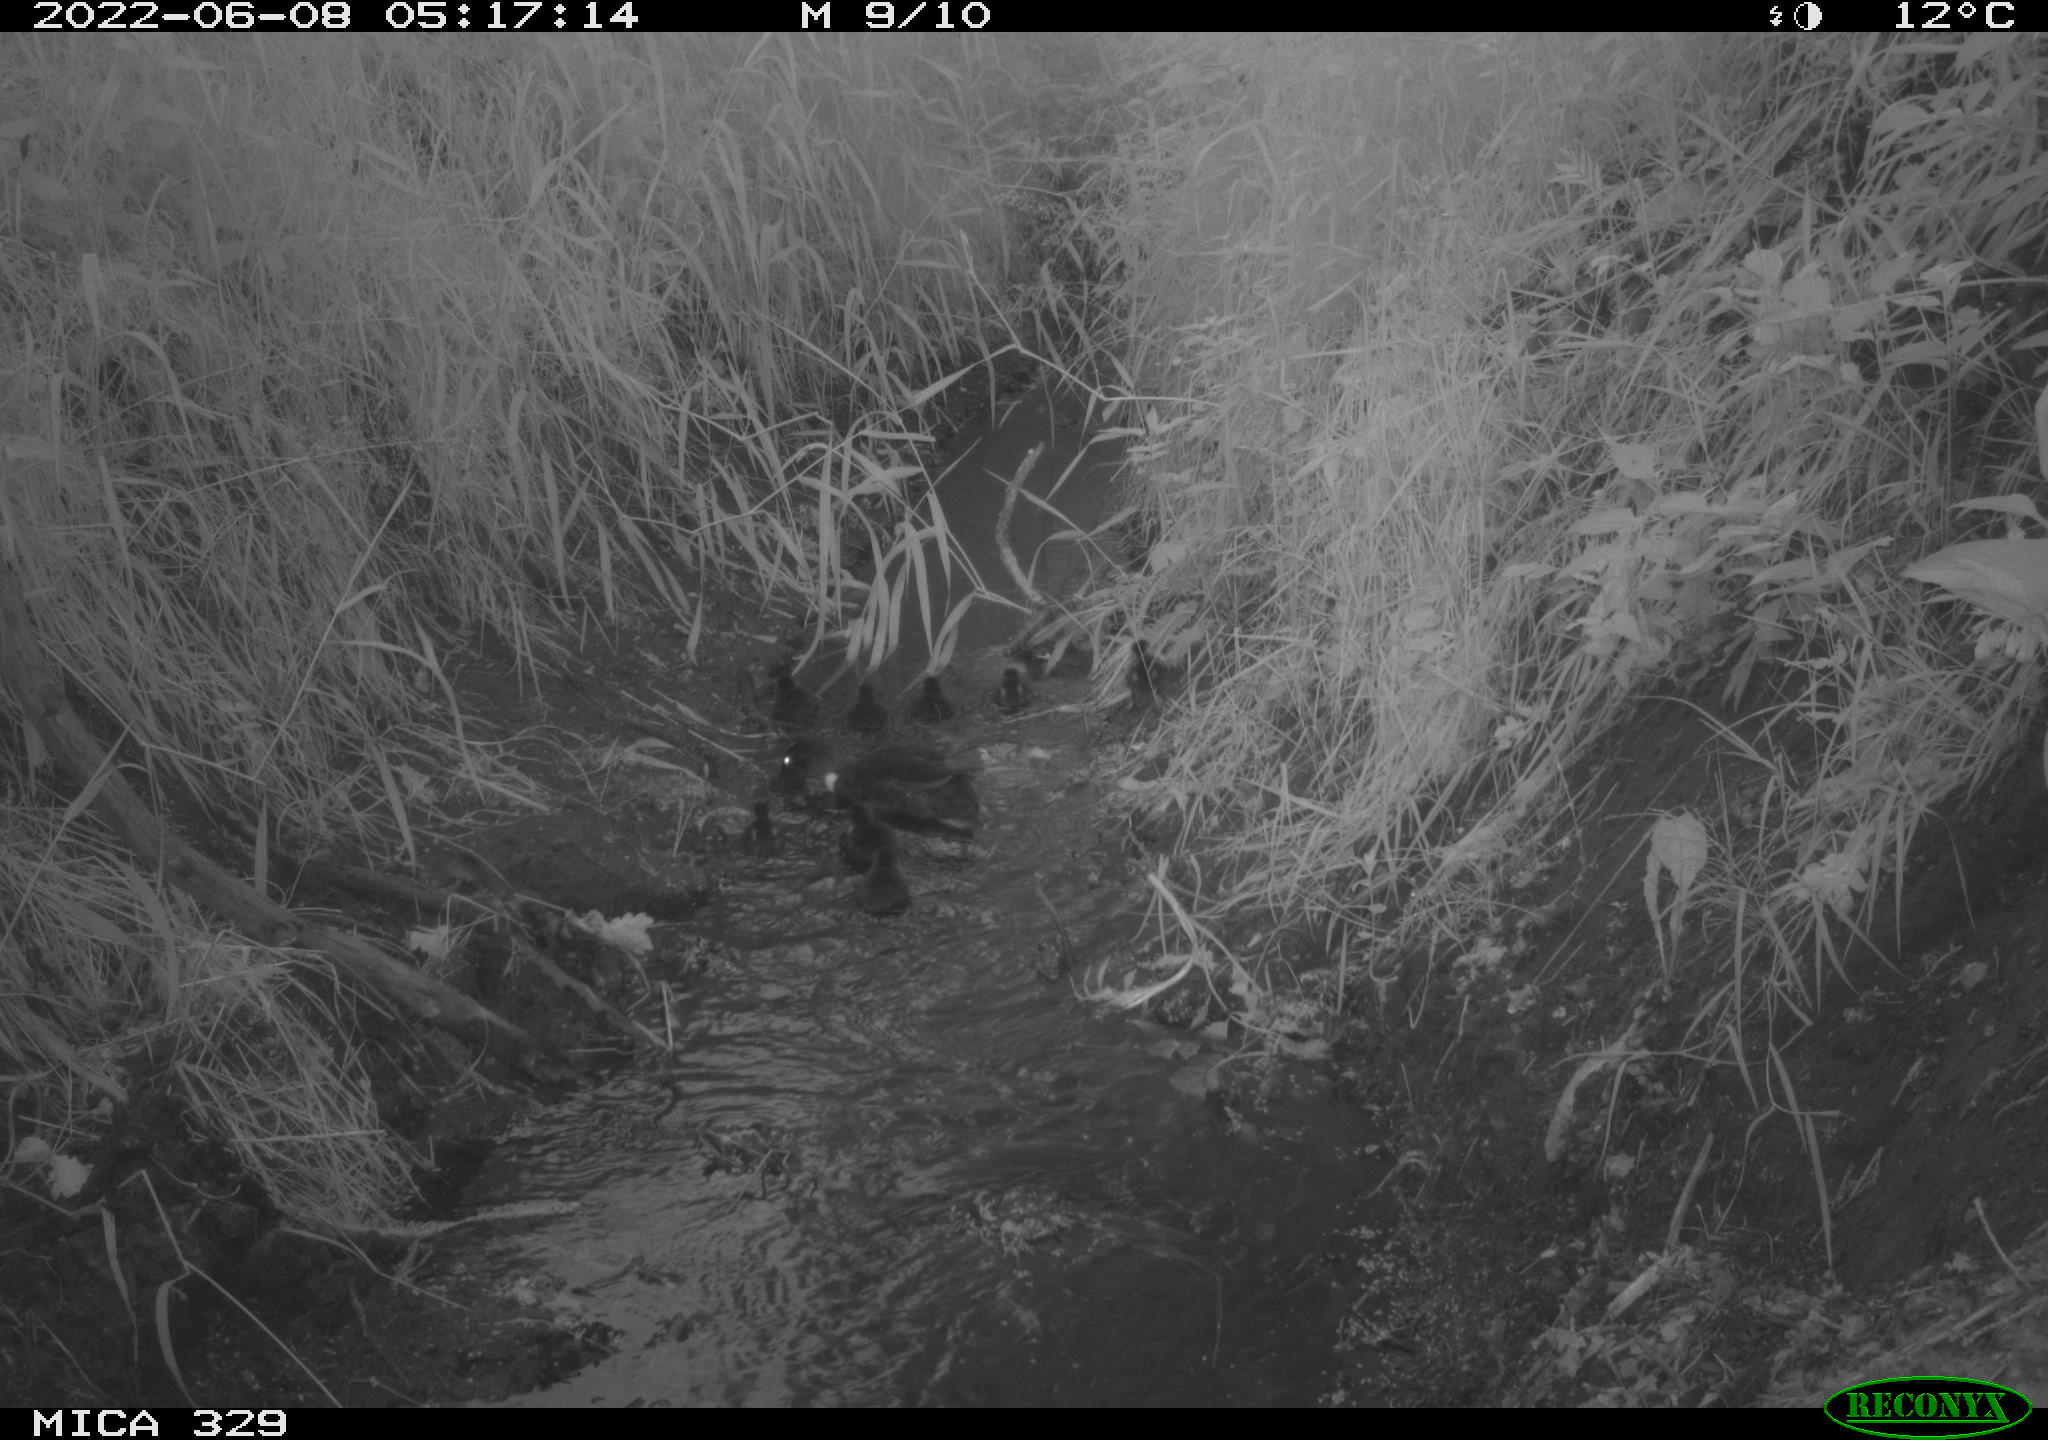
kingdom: Animalia
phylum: Chordata
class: Aves
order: Anseriformes
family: Anatidae
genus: Anas
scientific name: Anas
